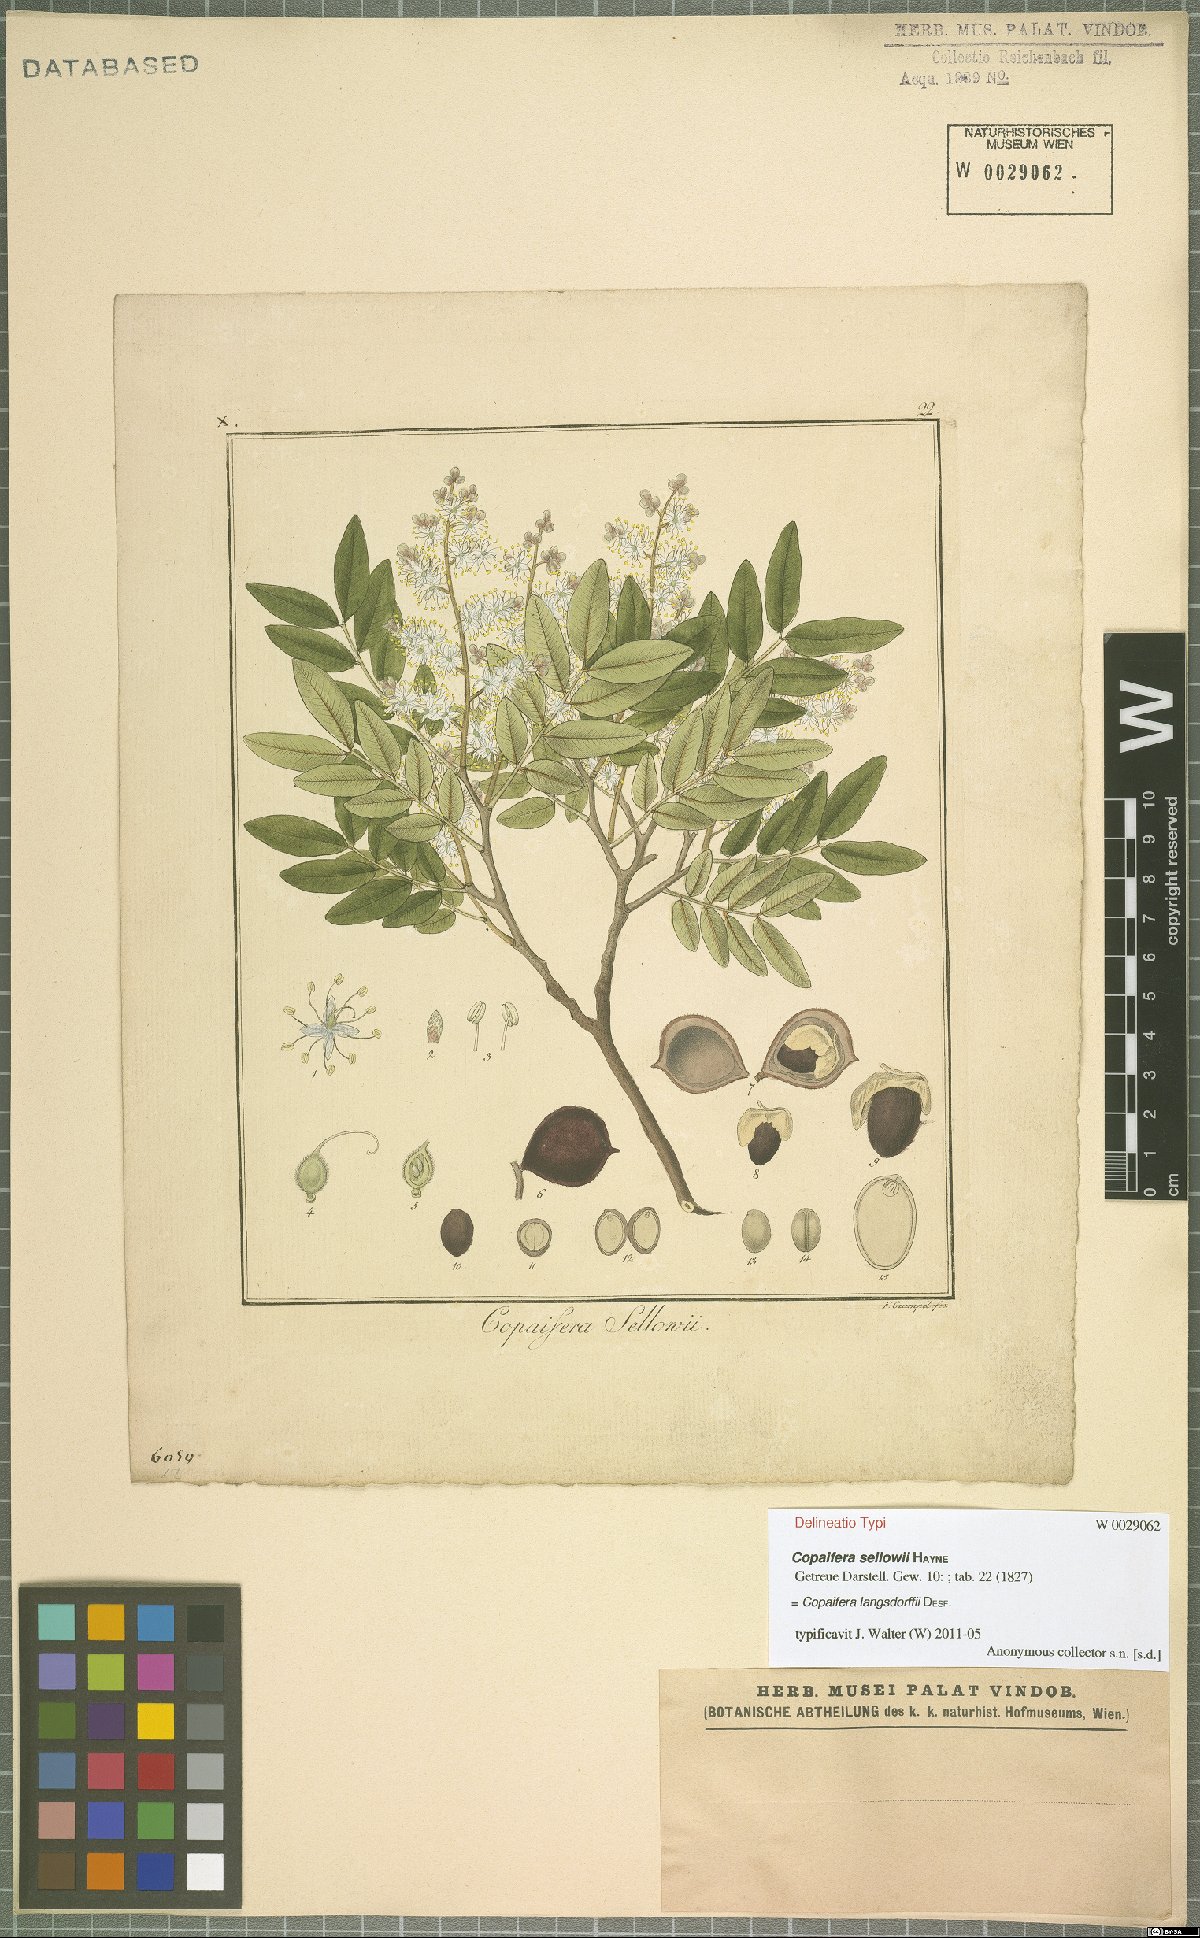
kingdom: Plantae
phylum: Tracheophyta
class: Magnoliopsida
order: Fabales
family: Fabaceae
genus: Copaifera
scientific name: Copaifera langsdorffii
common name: Brazilian diesel tree
